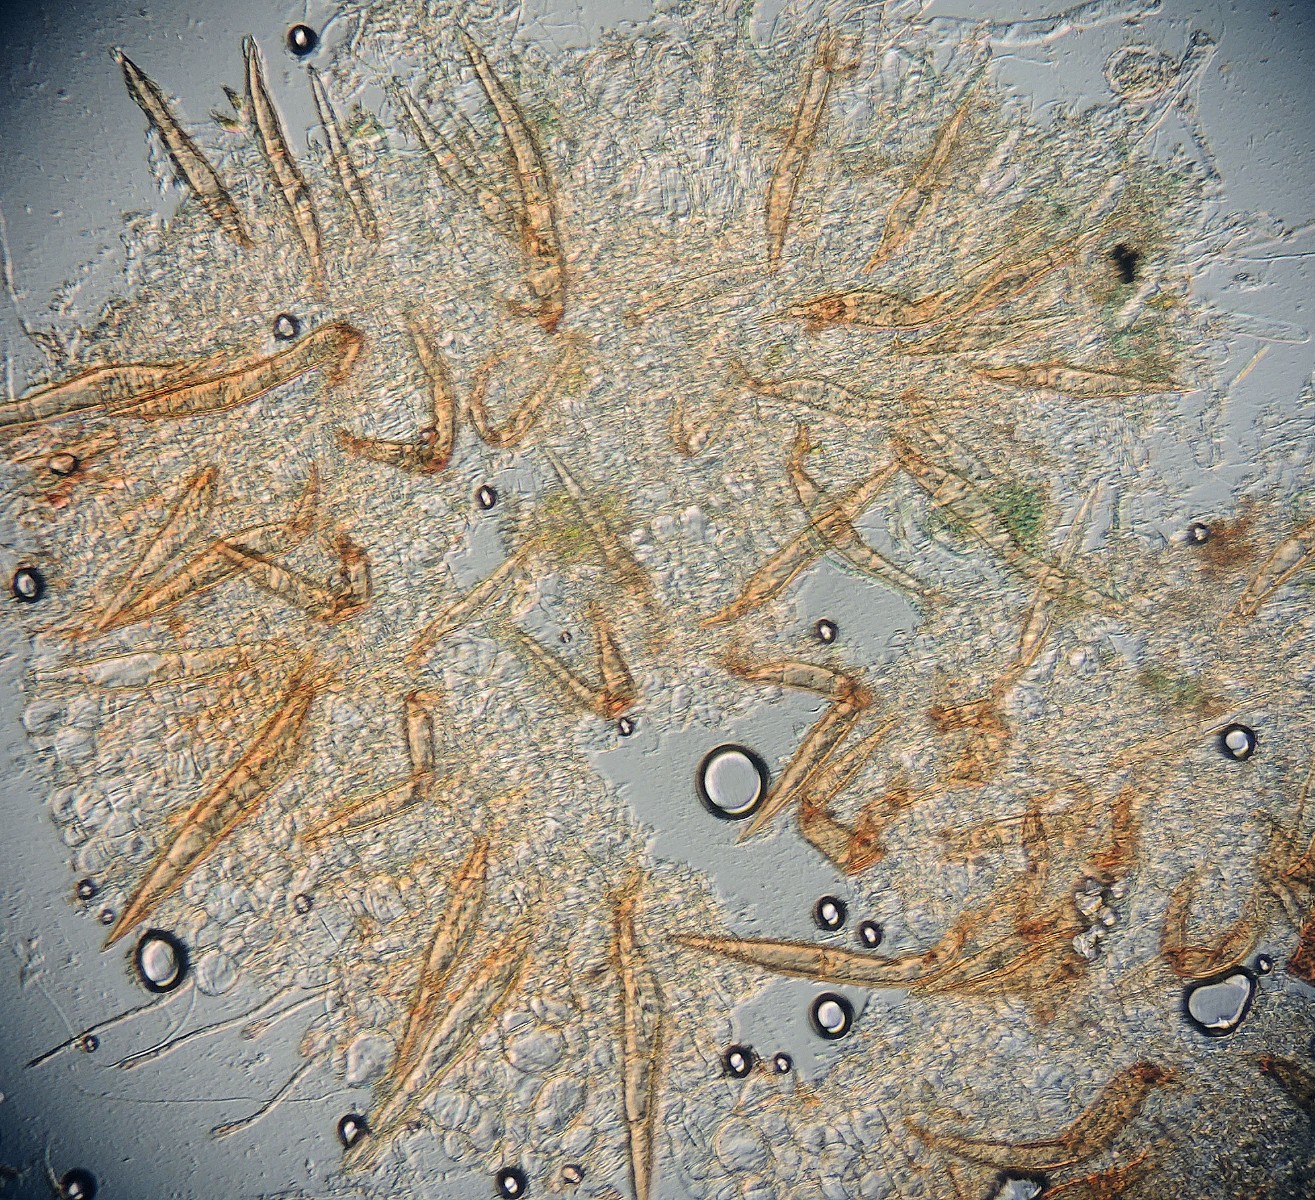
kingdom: Fungi
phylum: Ascomycota
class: Pezizomycetes
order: Pezizales
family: Pyronemataceae
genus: Scutellinia
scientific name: Scutellinia vitreola
